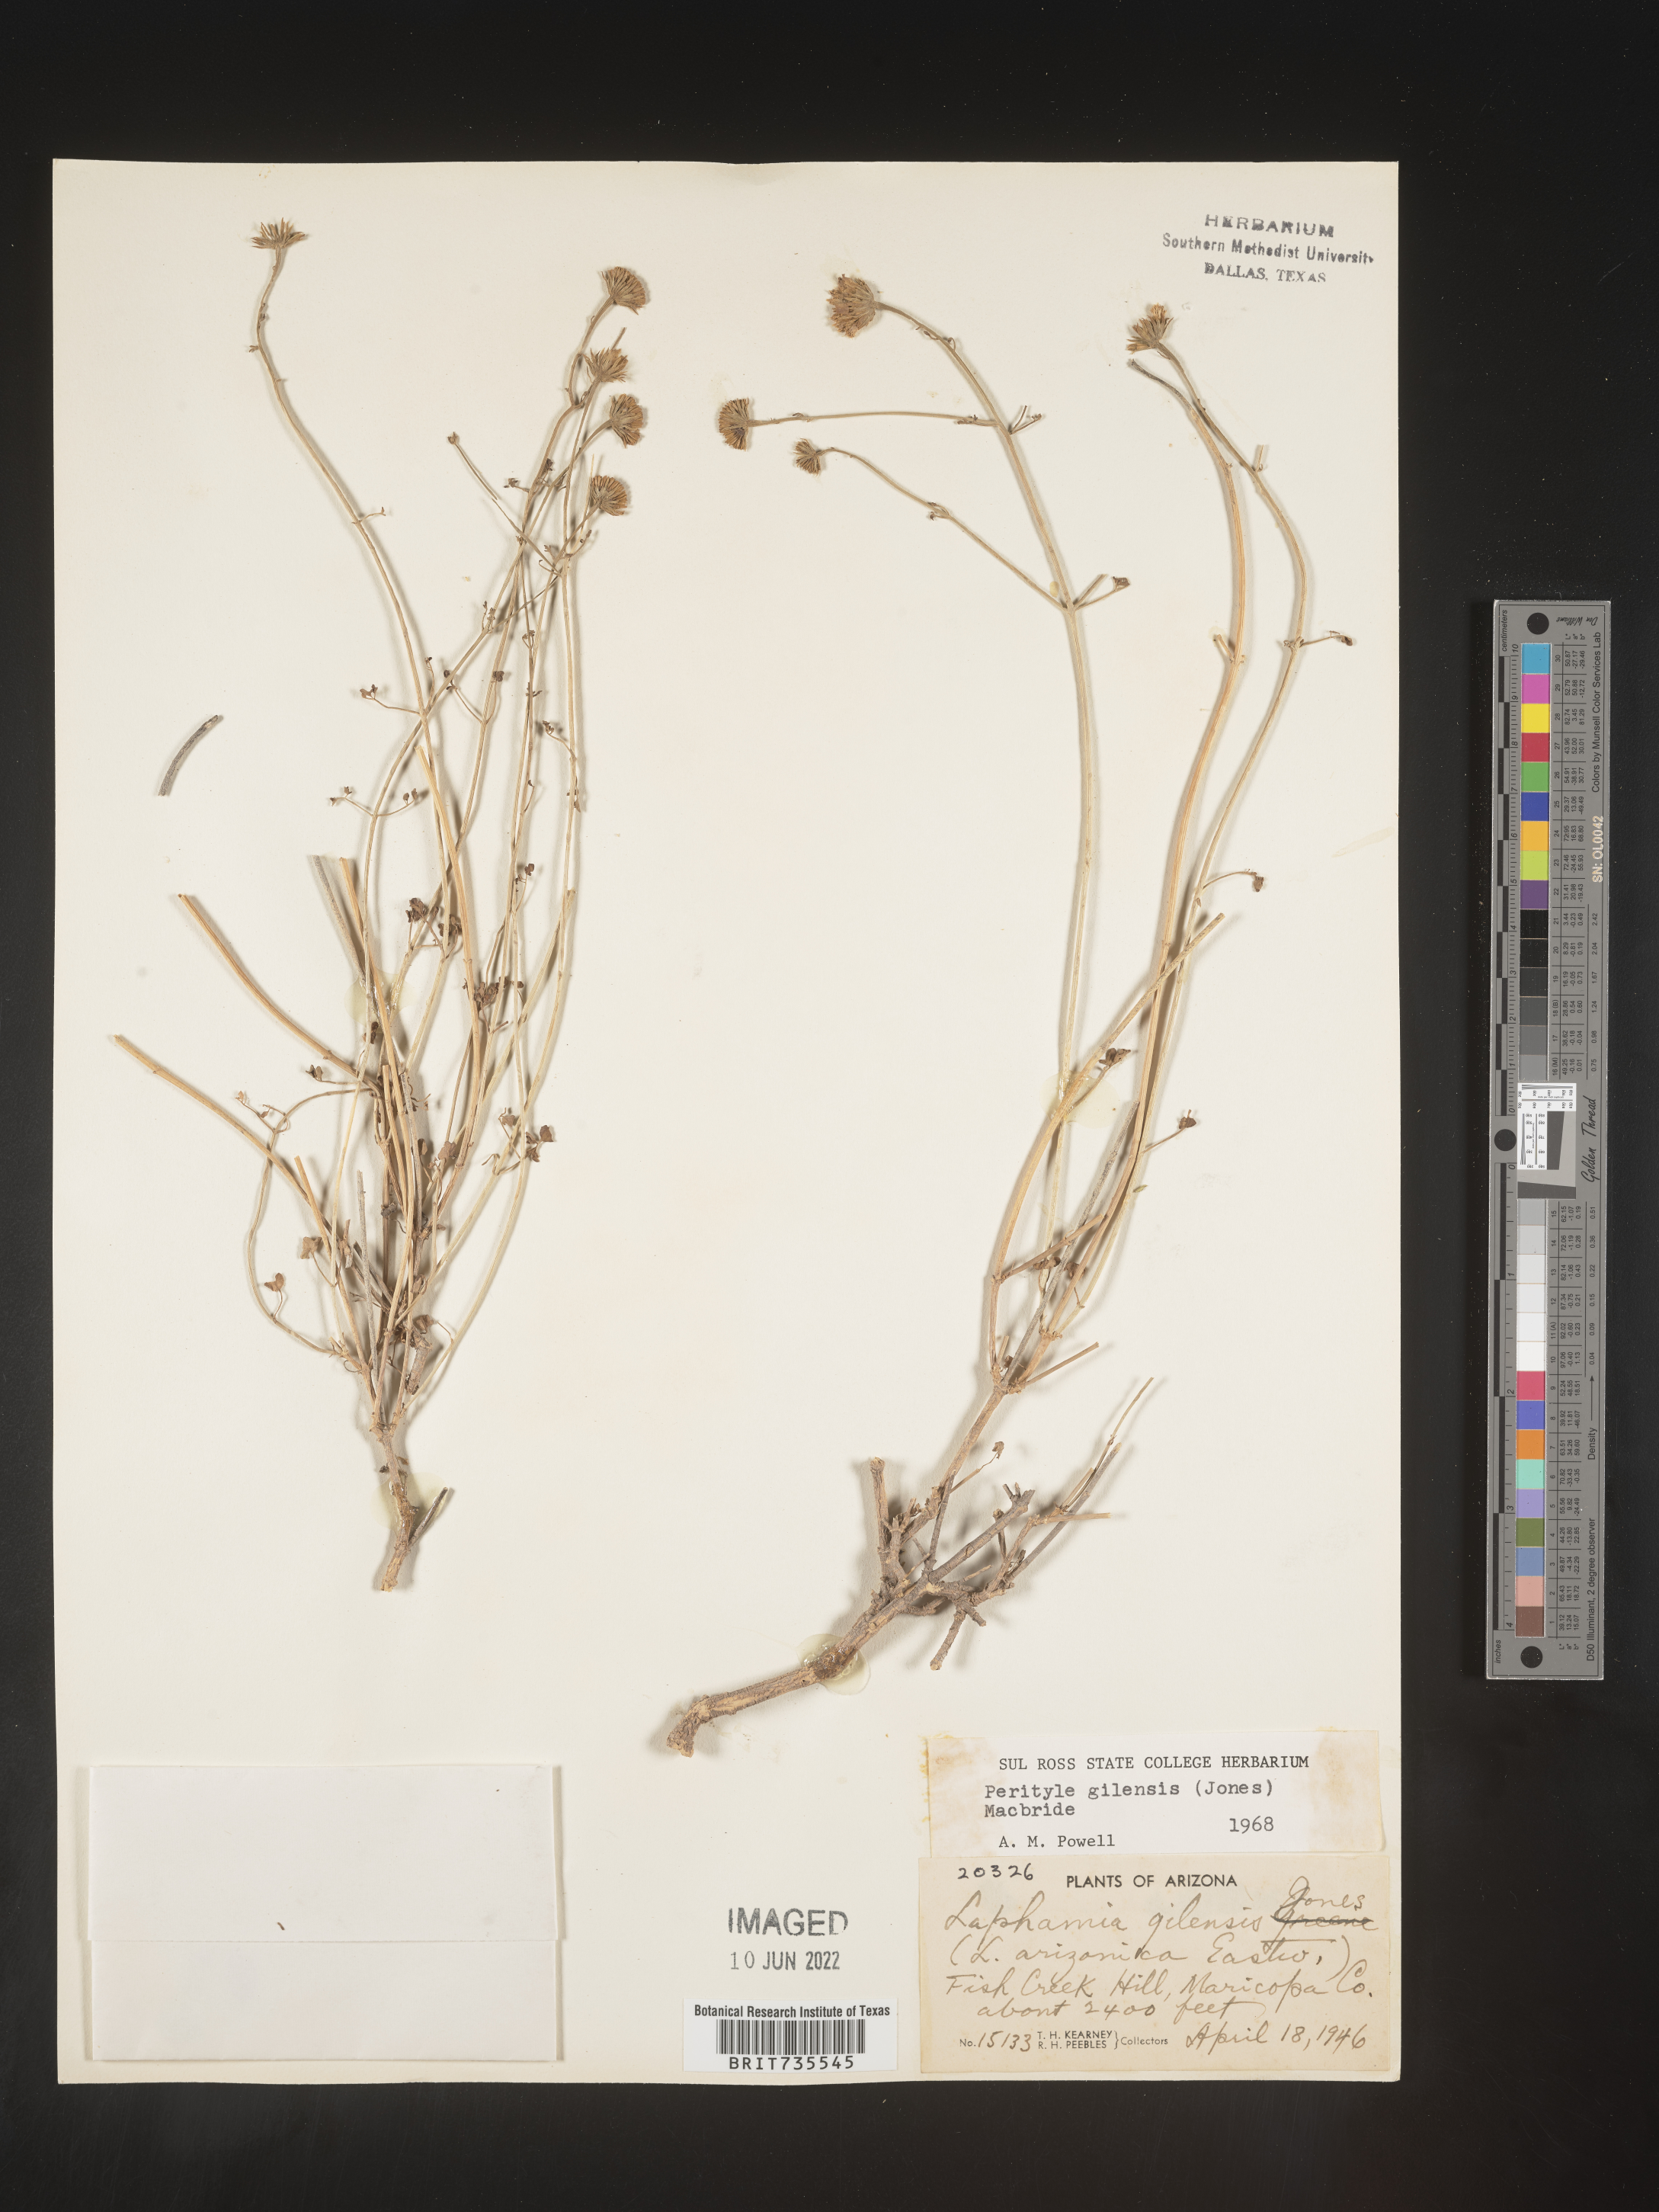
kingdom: Plantae
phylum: Tracheophyta
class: Magnoliopsida
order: Asterales
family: Asteraceae
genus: Perityle
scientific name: Perityle
